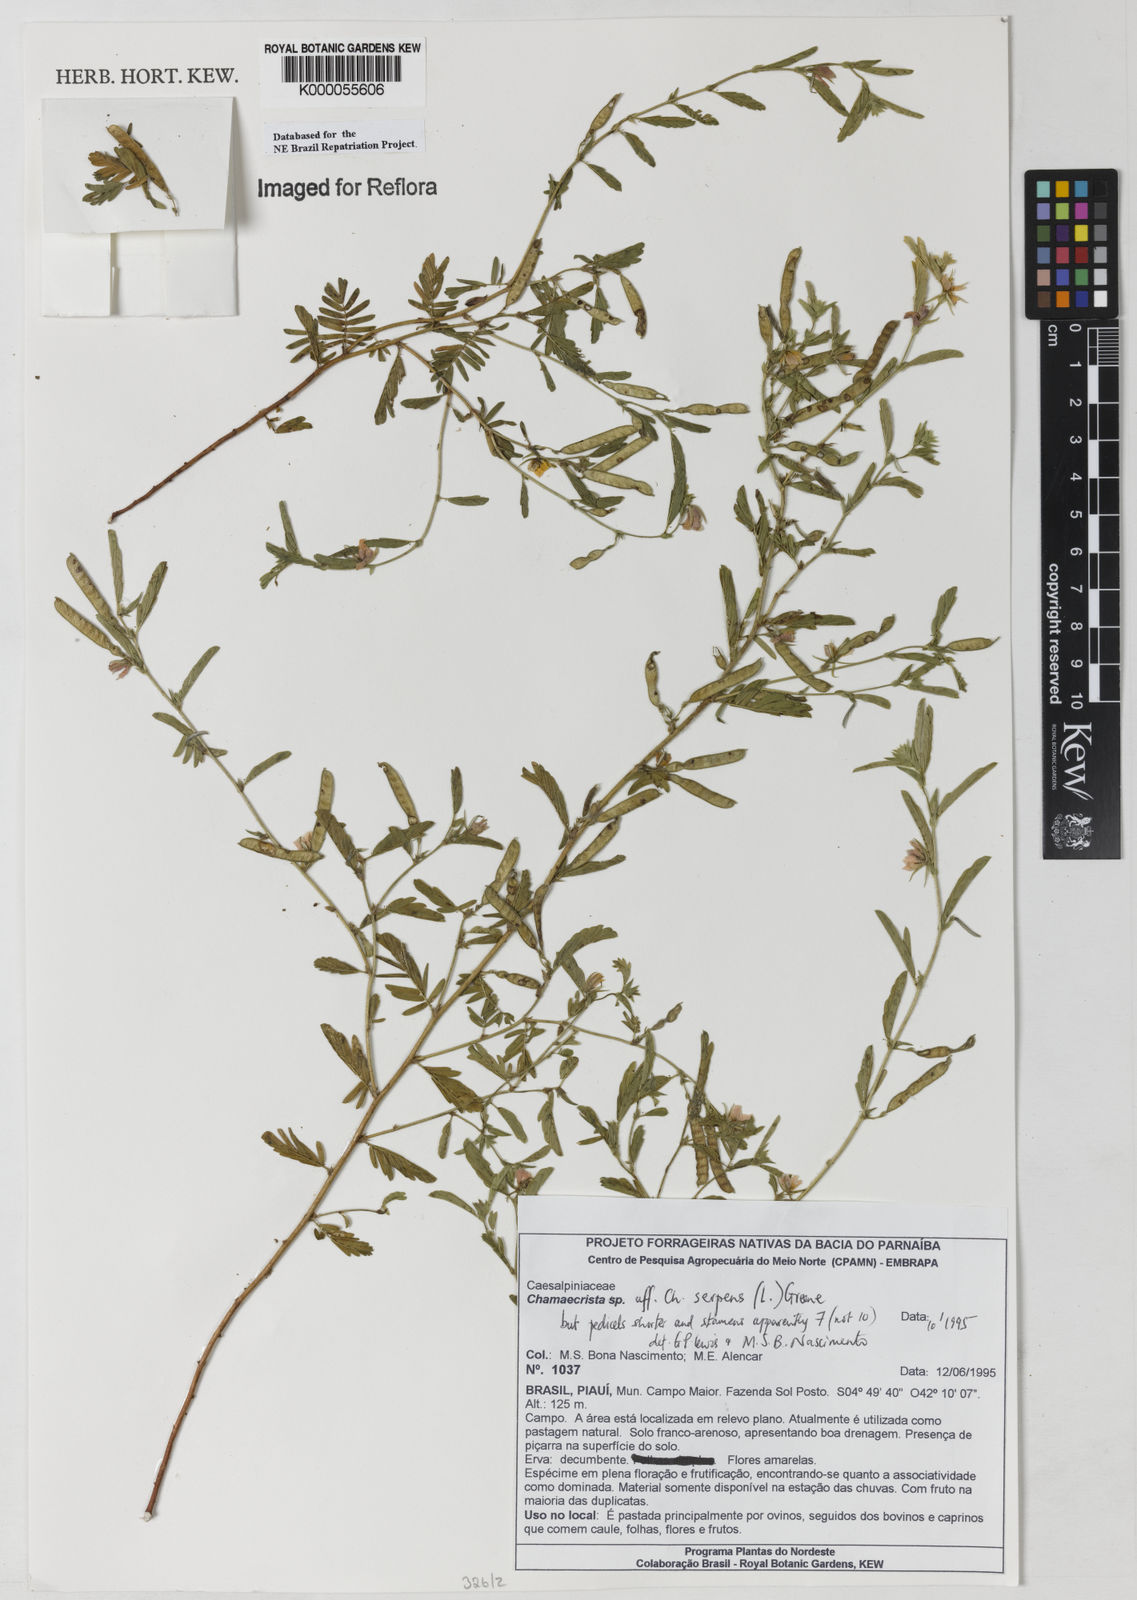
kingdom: Plantae
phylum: Tracheophyta
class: Magnoliopsida
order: Fabales
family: Fabaceae
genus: Chamaecrista
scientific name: Chamaecrista serpens
